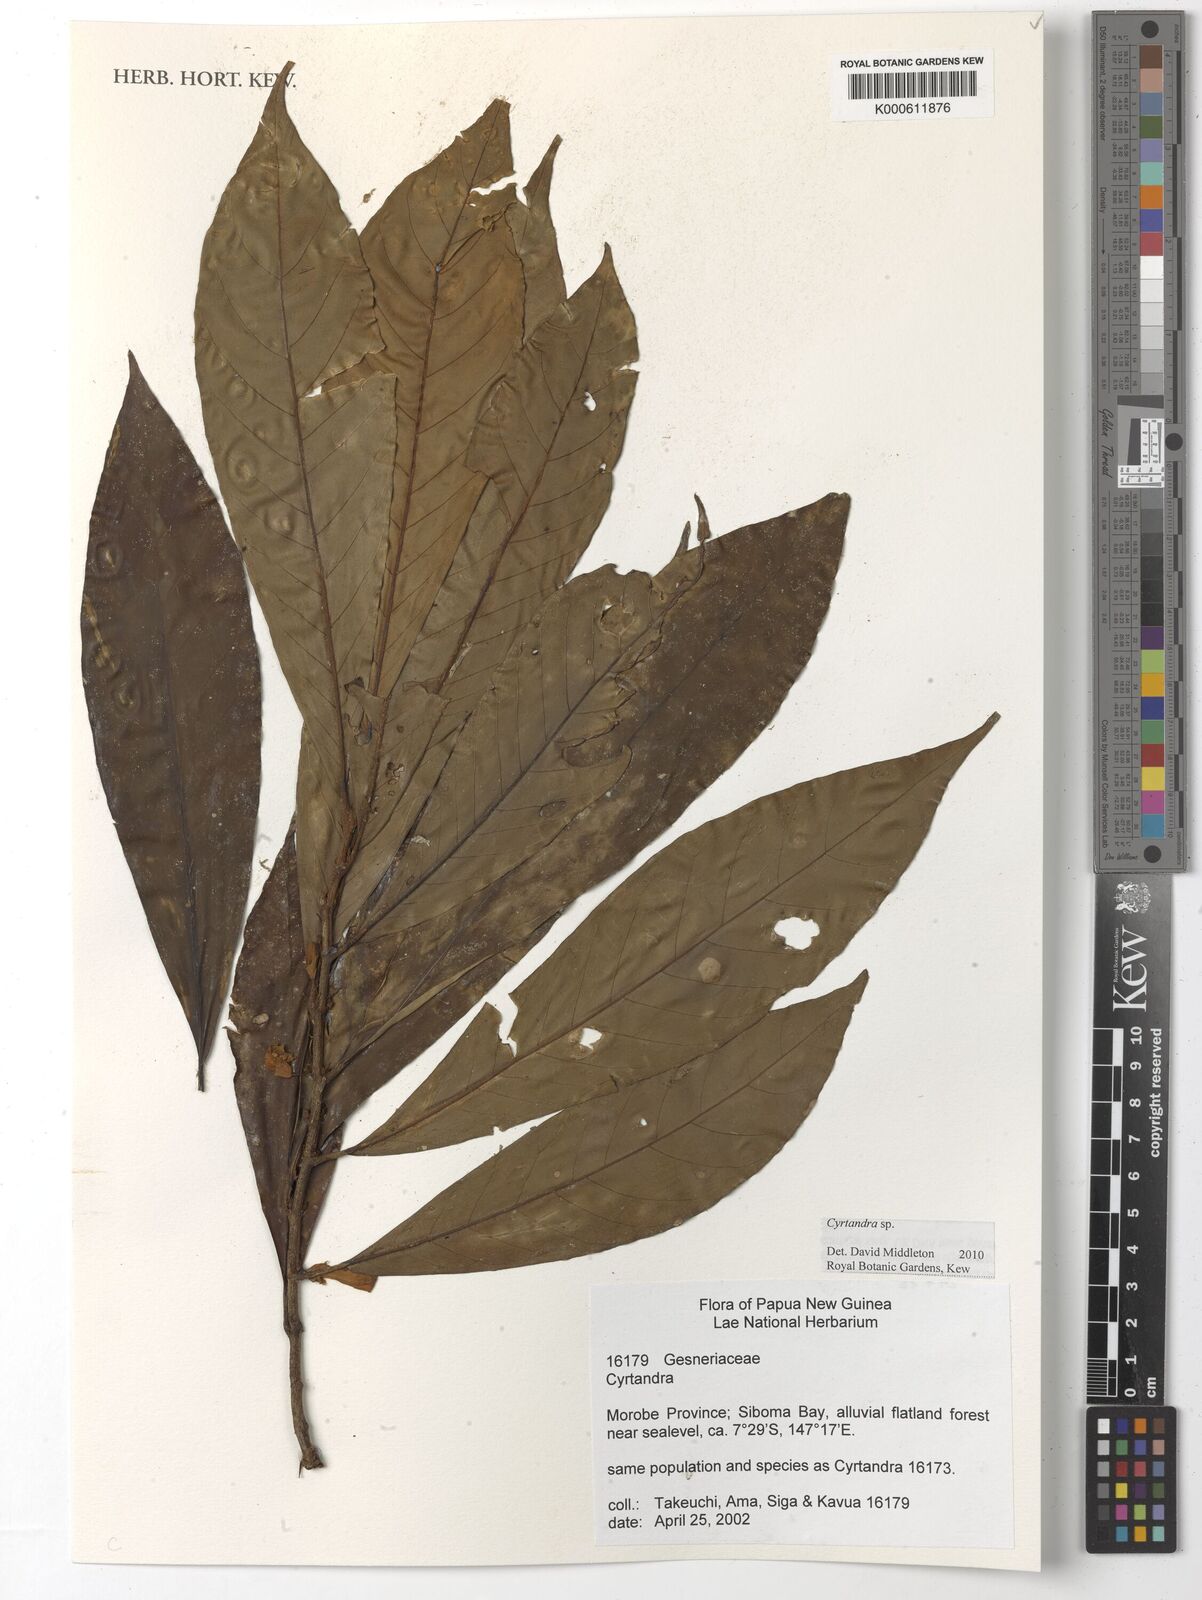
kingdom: Plantae
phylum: Tracheophyta
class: Magnoliopsida
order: Lamiales
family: Gesneriaceae
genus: Cyrtandra
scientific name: Cyrtandra
